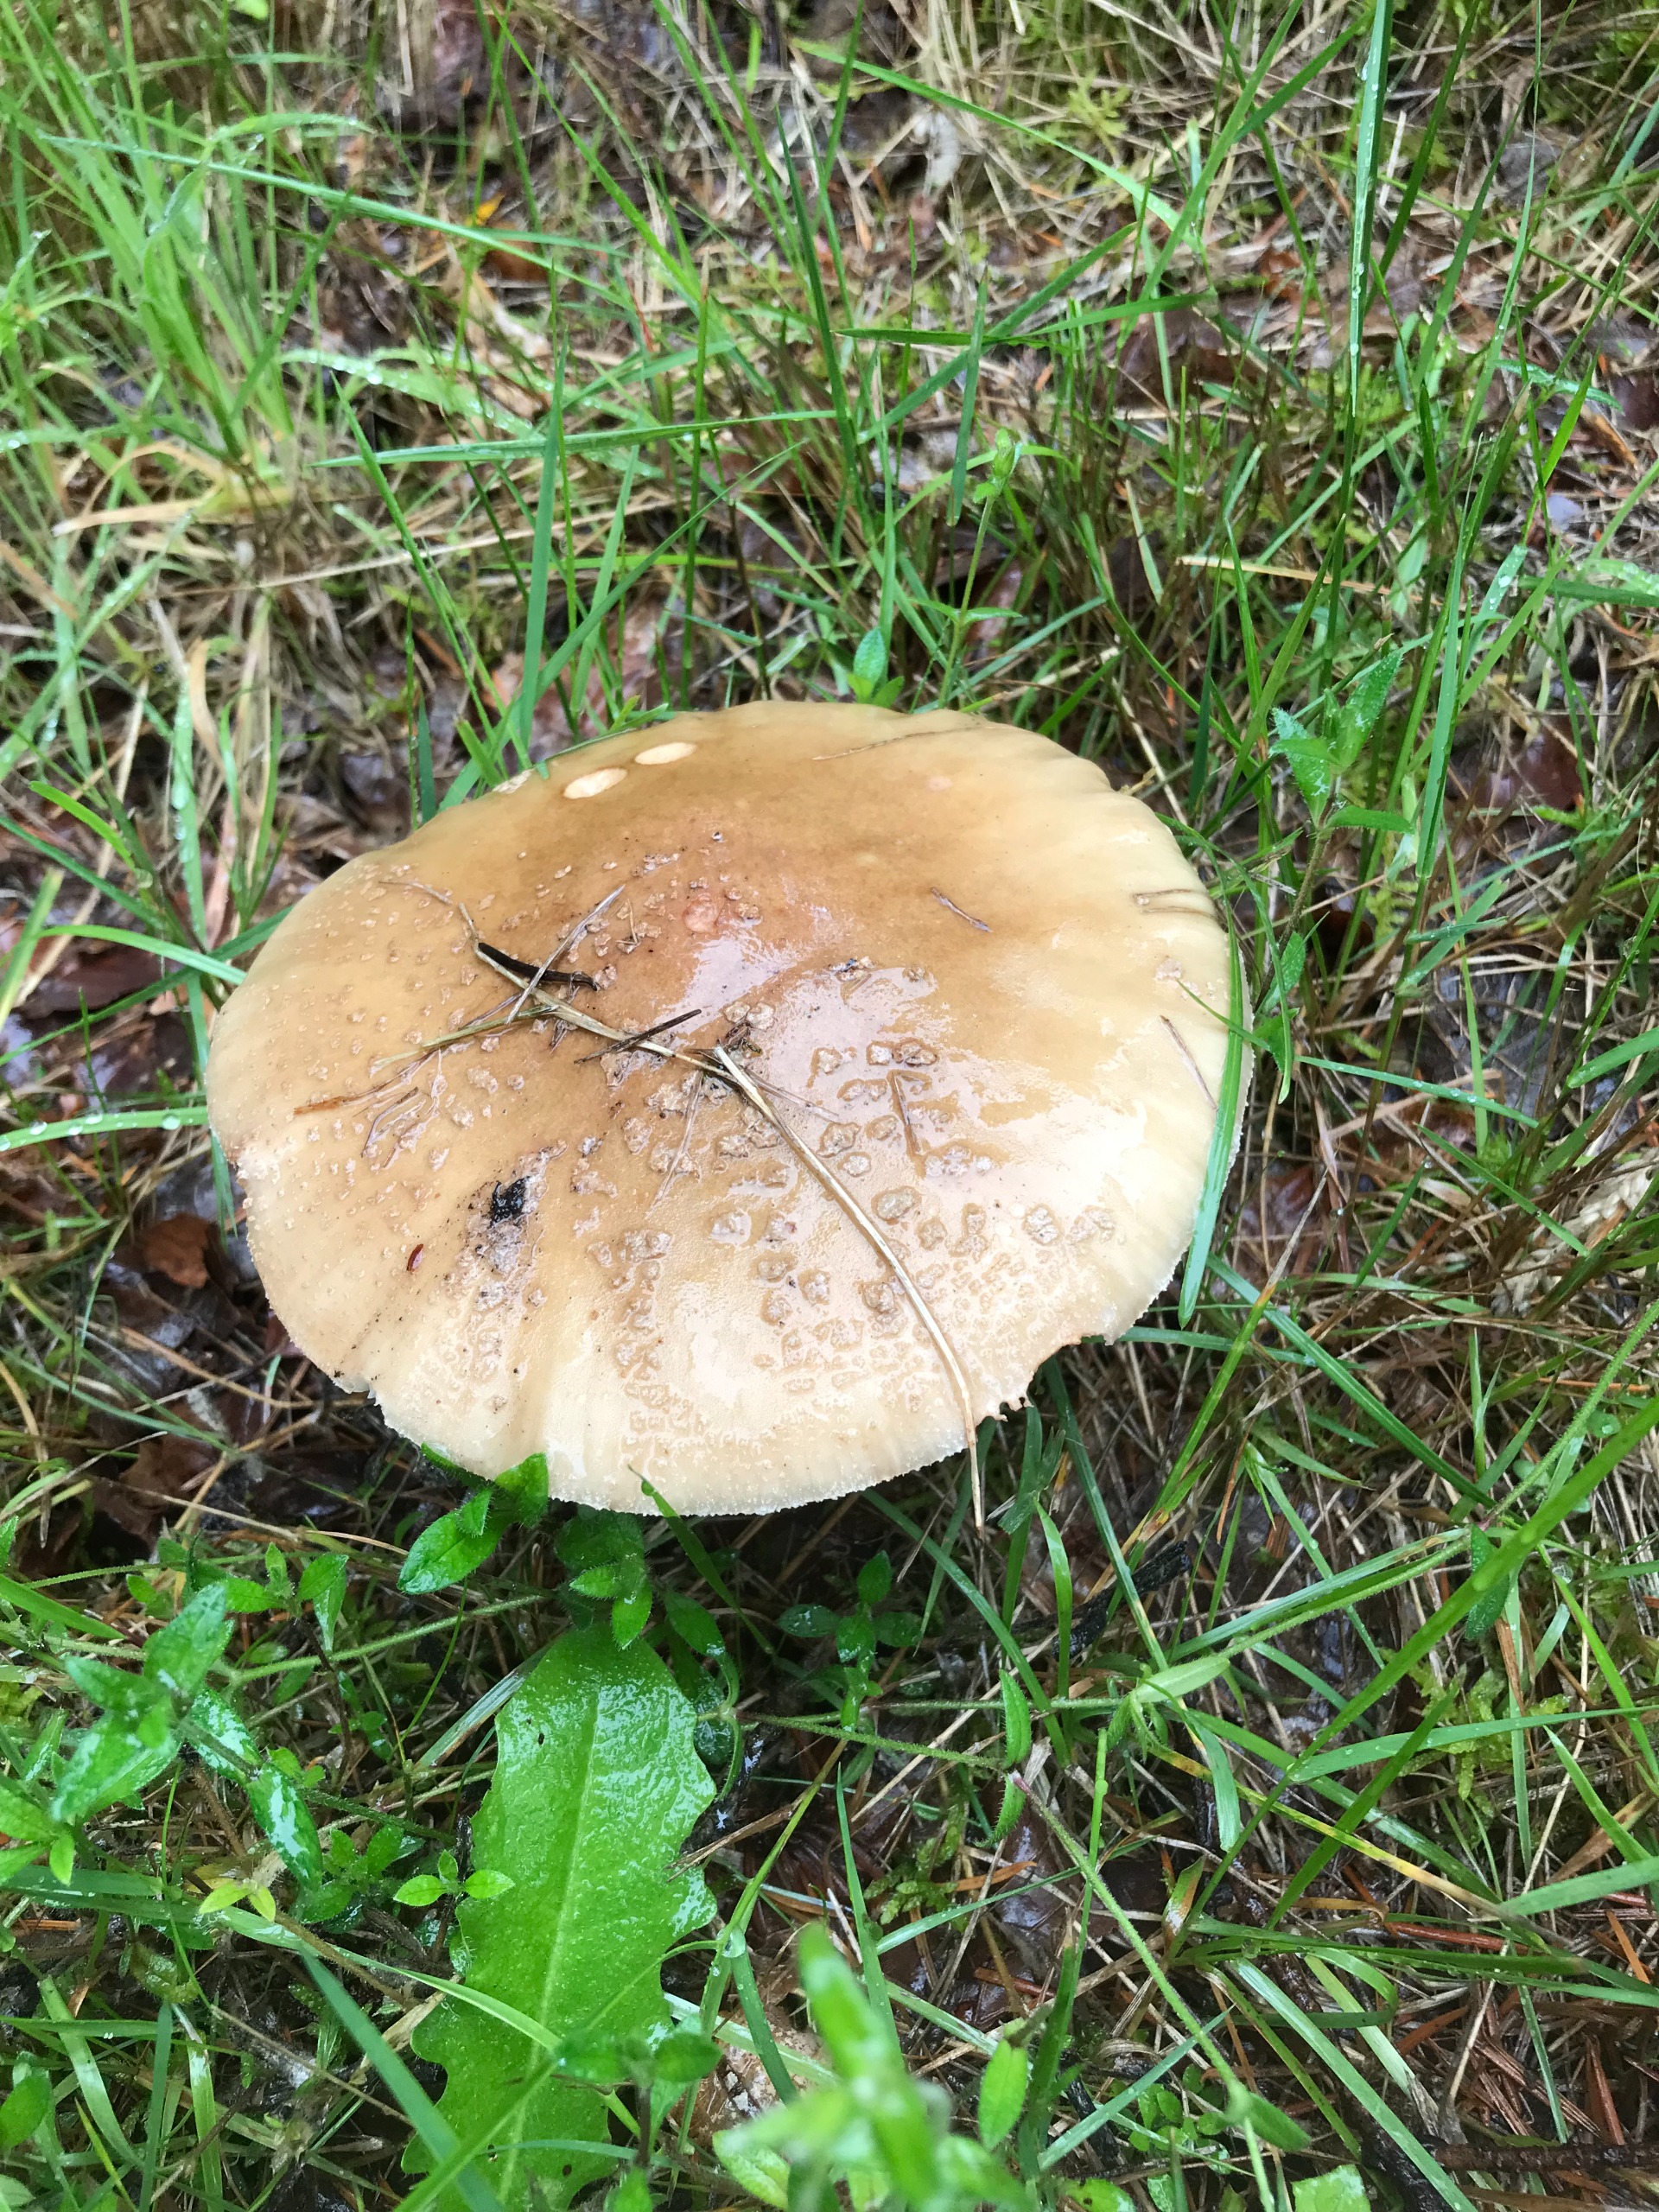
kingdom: Fungi
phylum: Basidiomycota
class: Agaricomycetes
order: Agaricales
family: Amanitaceae
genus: Amanita
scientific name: Amanita rubescens
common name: Rødmende fluesvamp
